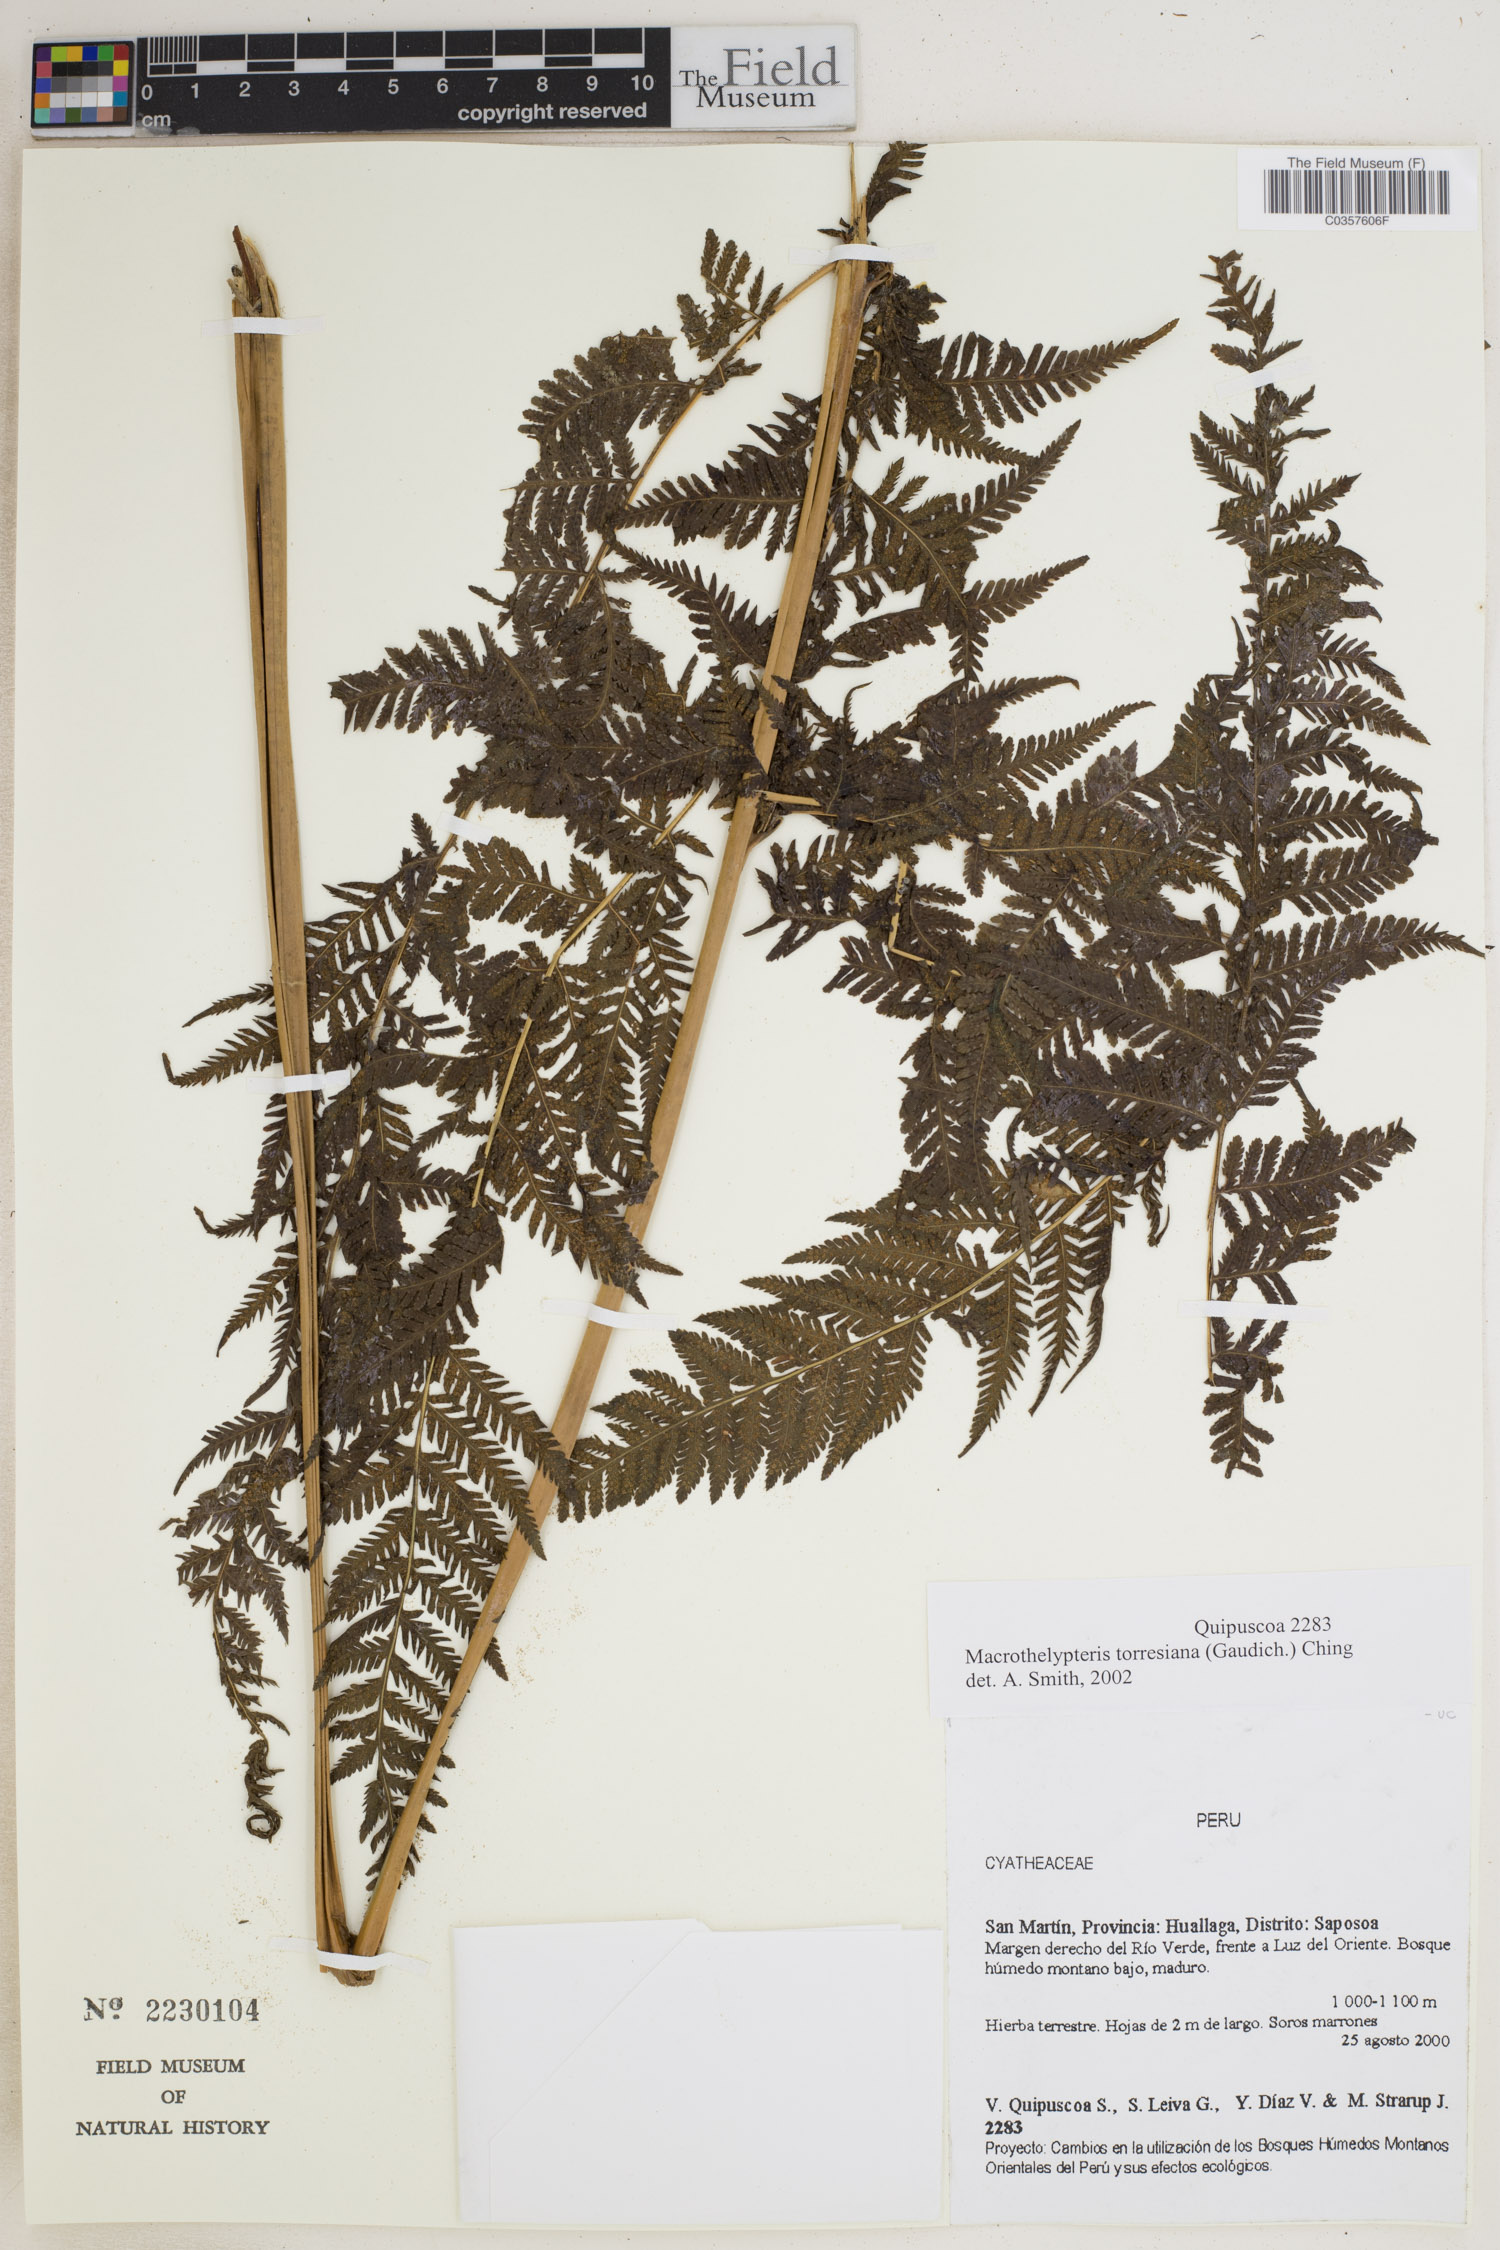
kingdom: Plantae
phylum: Tracheophyta
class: Polypodiopsida
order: Polypodiales
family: Thelypteridaceae
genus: Macrothelypteris
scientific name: Macrothelypteris torresiana
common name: Swordfern
